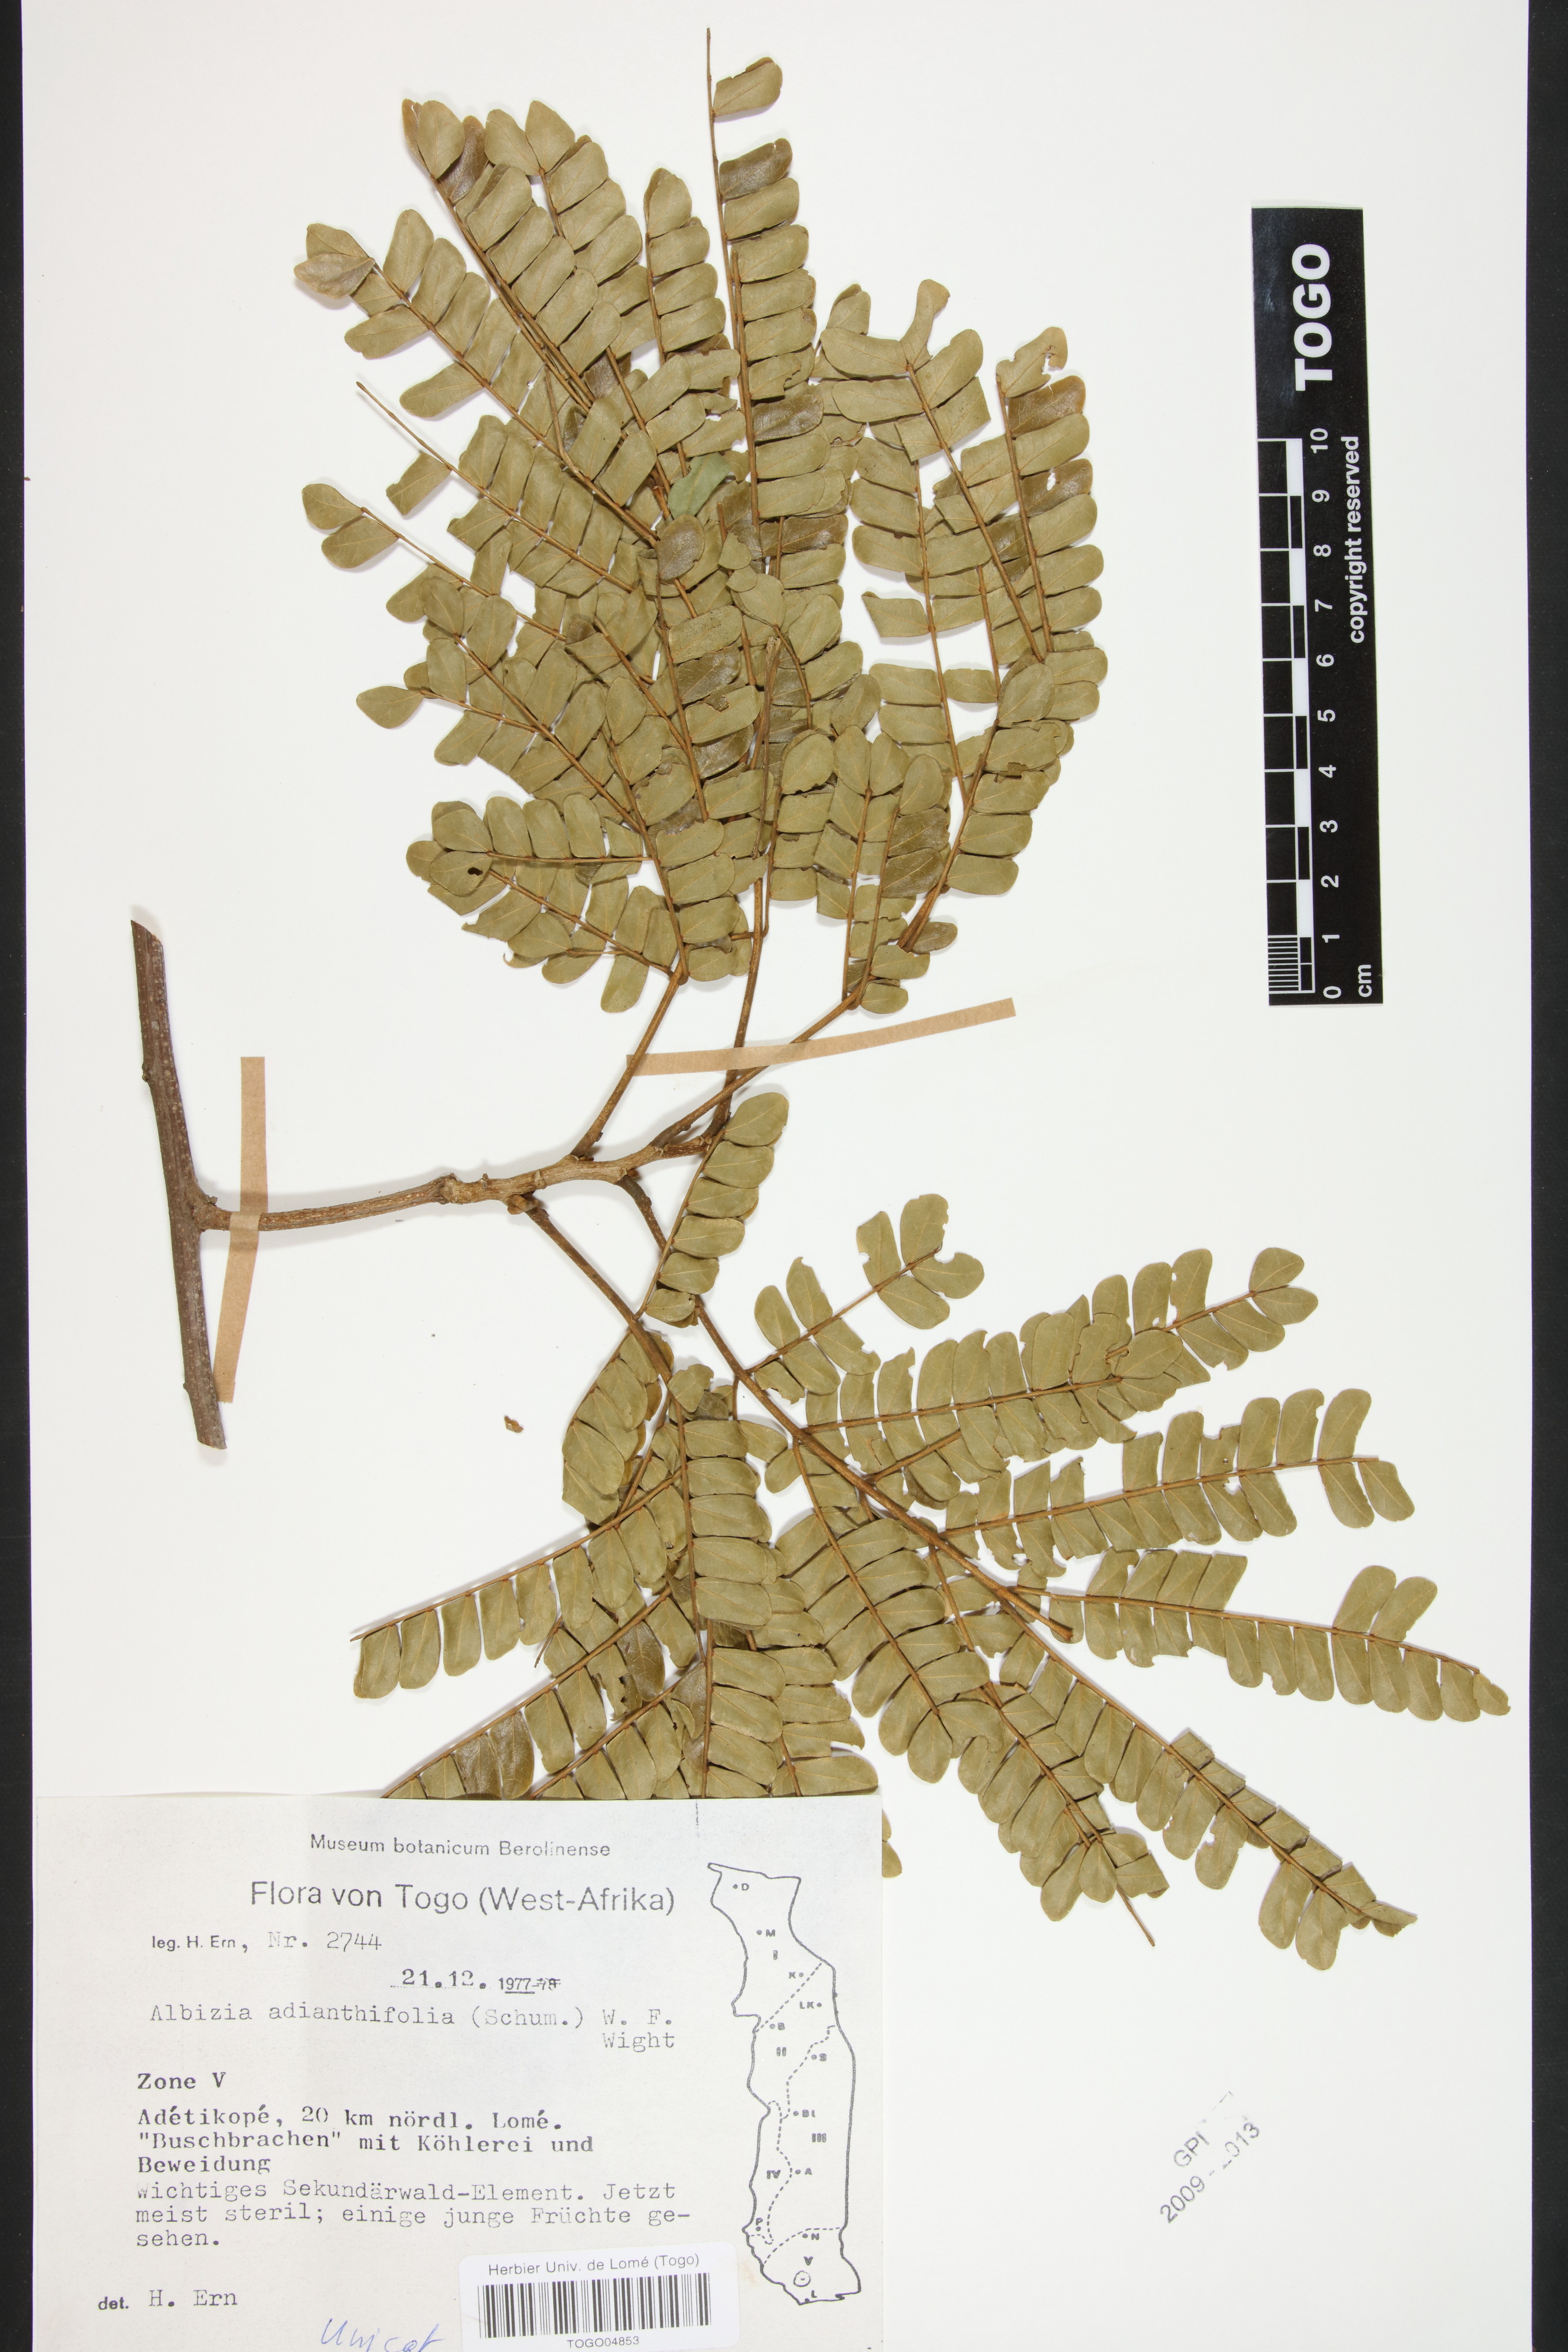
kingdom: Plantae
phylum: Tracheophyta
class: Magnoliopsida
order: Fabales
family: Fabaceae
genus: Albizia
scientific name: Albizia adianthifolia
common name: West african albizia
